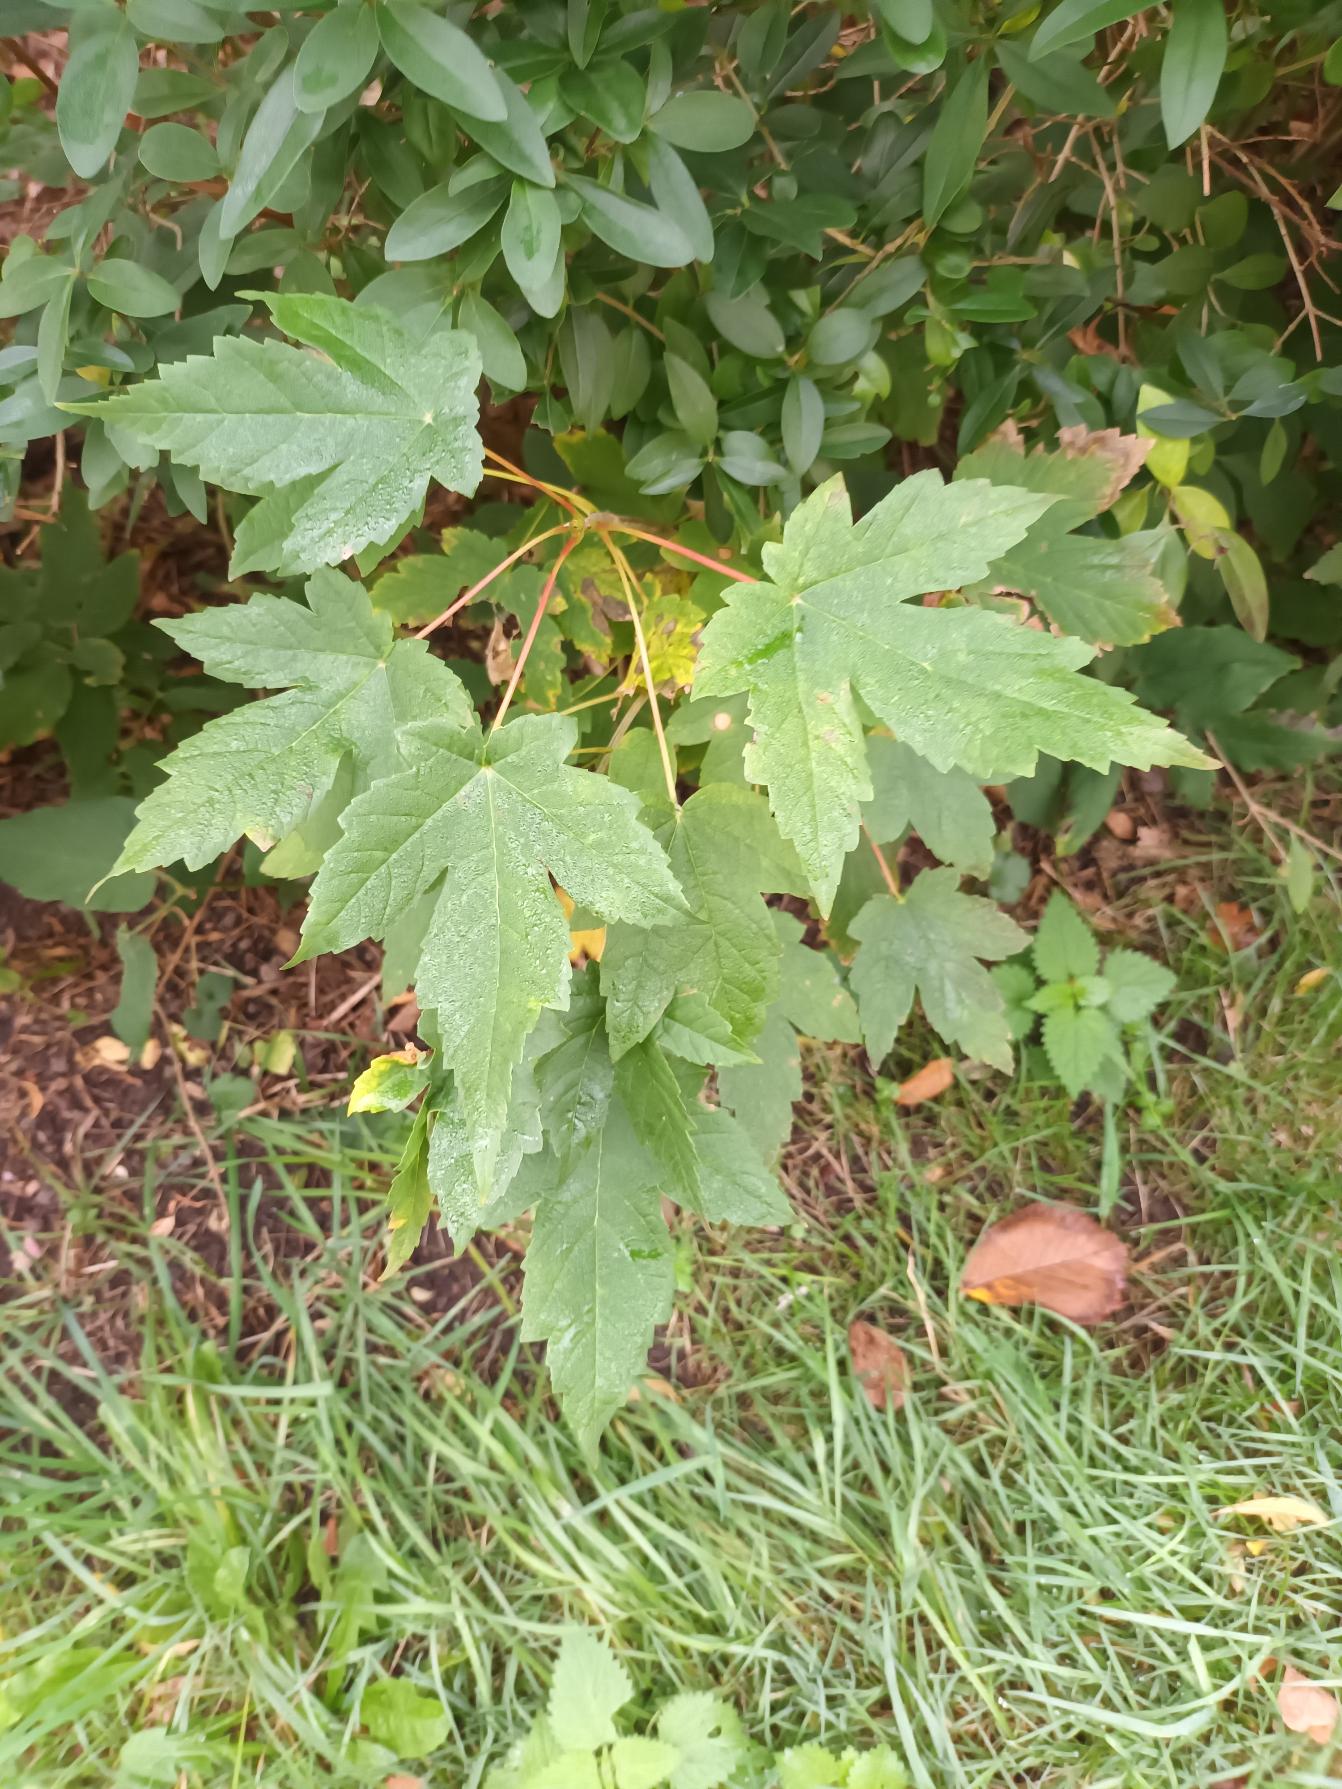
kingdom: Plantae
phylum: Tracheophyta
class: Magnoliopsida
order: Sapindales
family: Sapindaceae
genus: Acer
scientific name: Acer pseudoplatanus
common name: Ahorn
